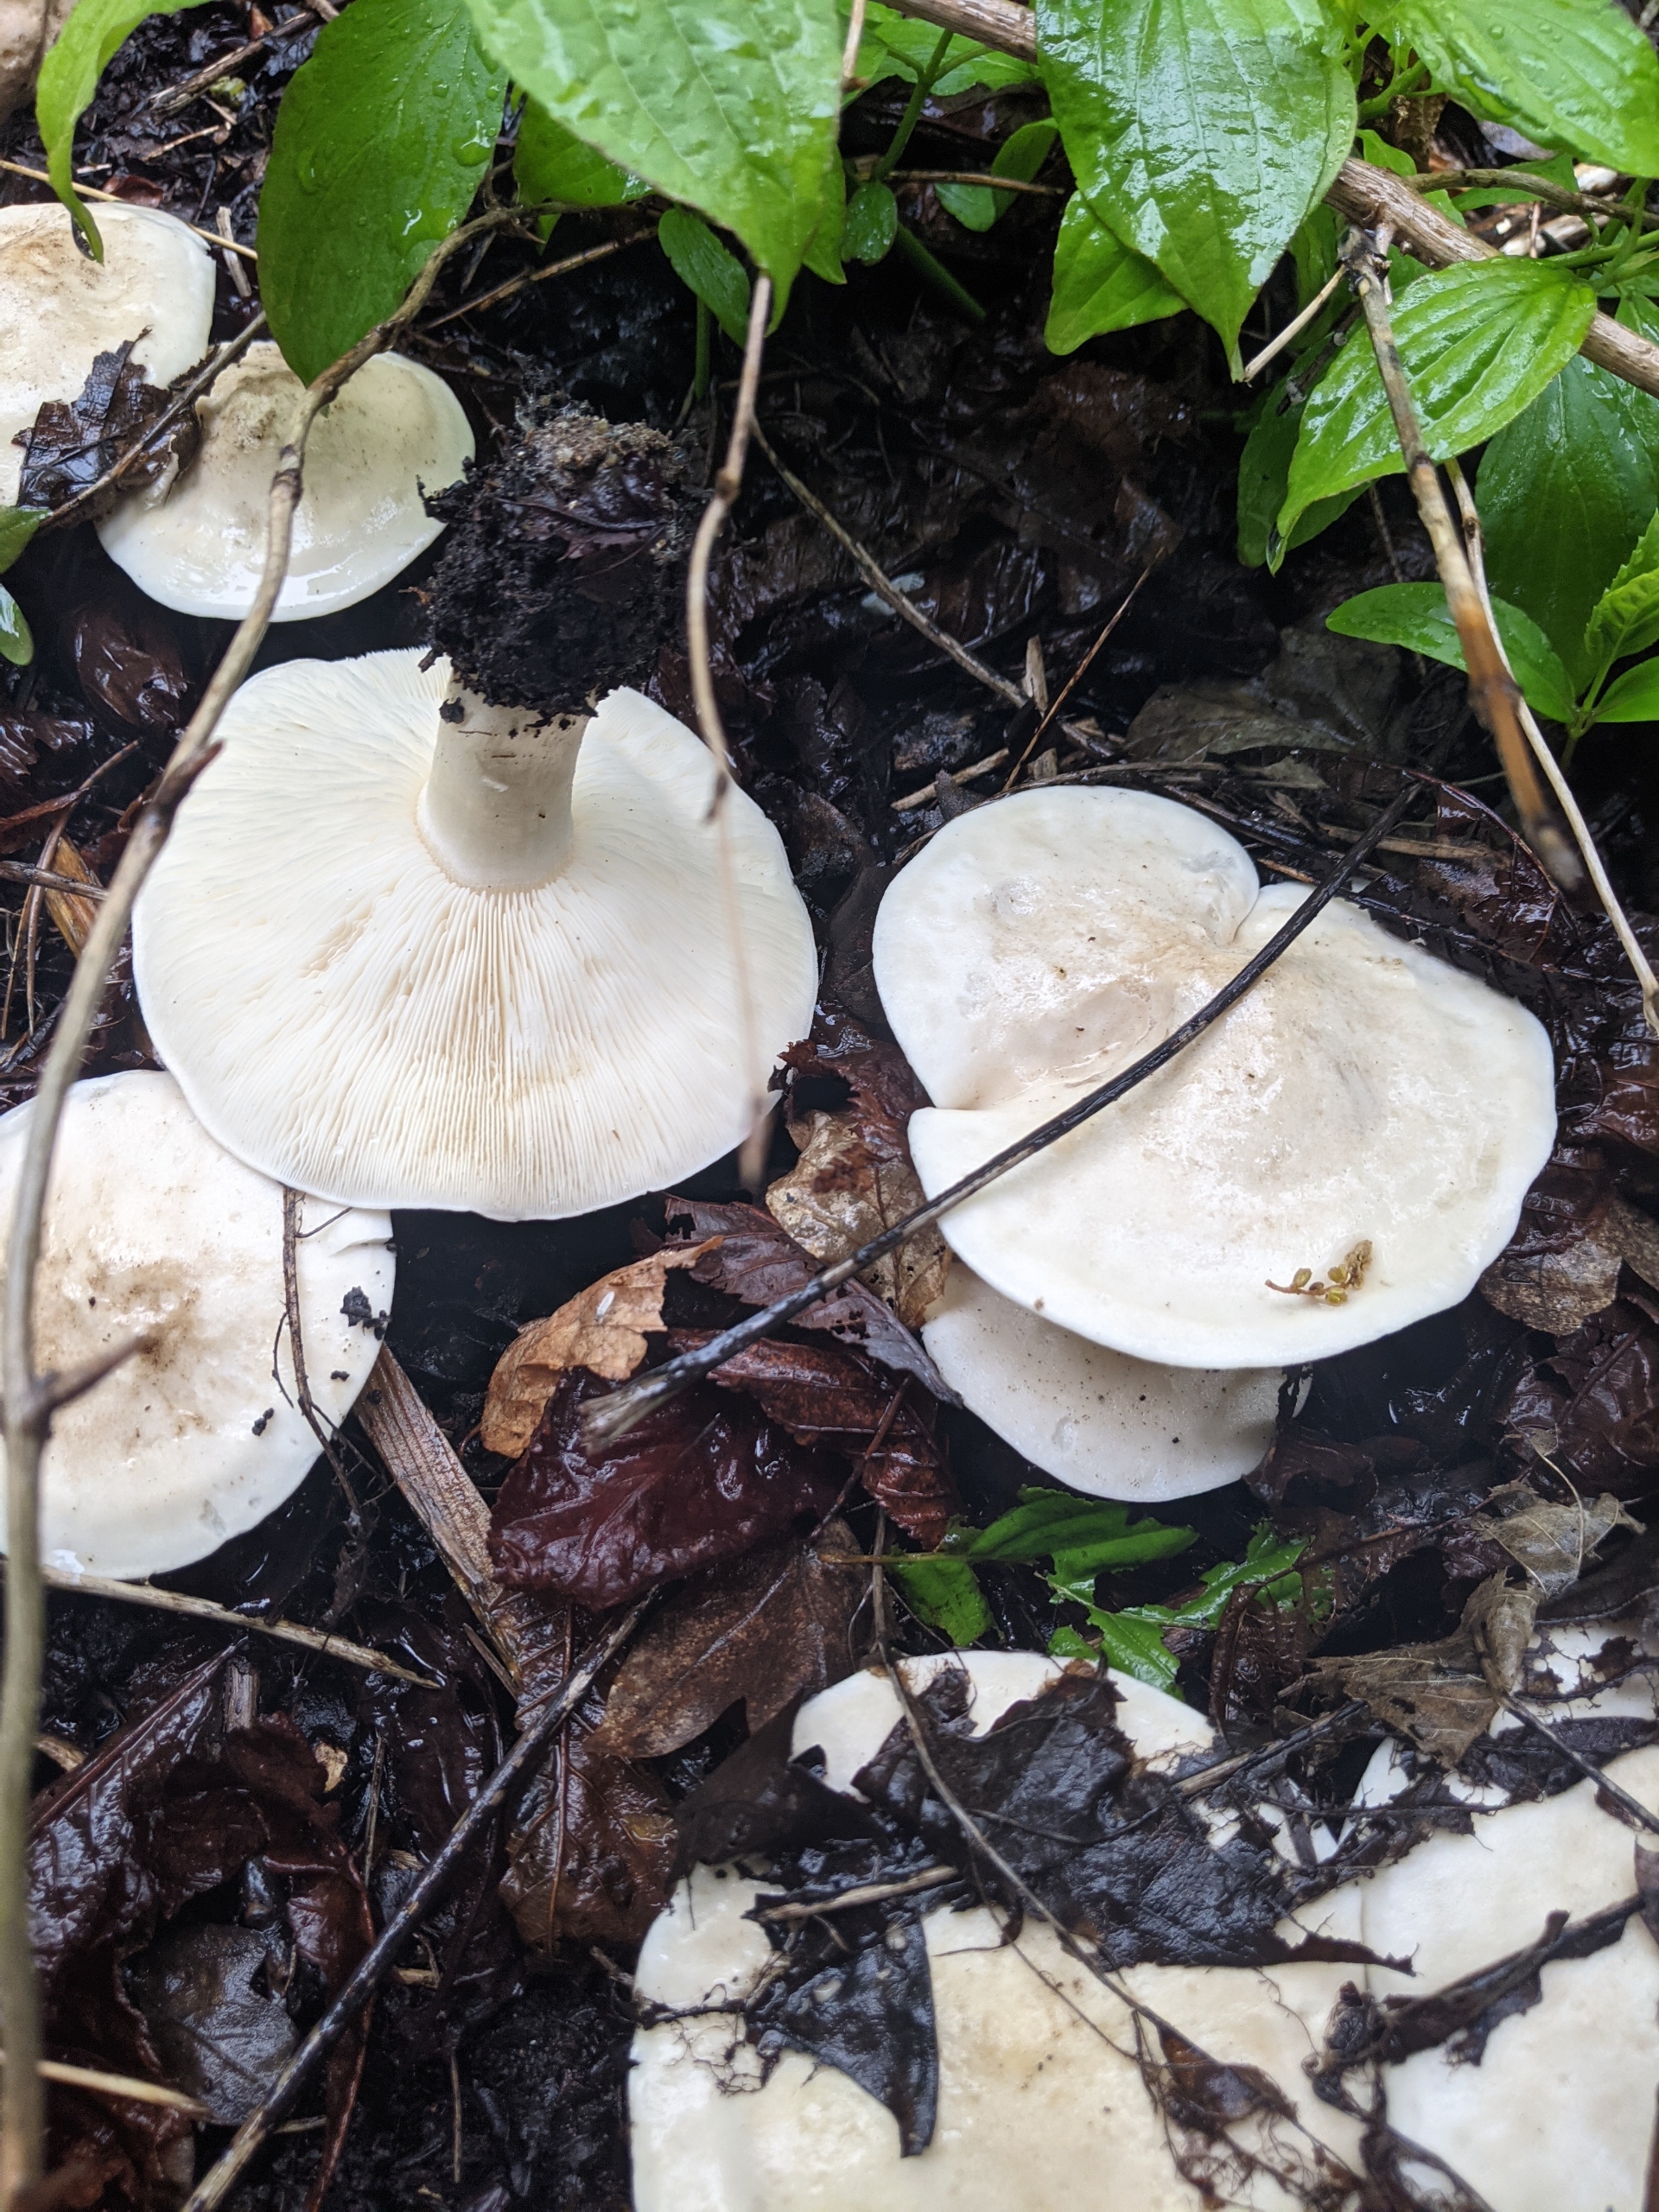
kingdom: Fungi
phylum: Basidiomycota
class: Agaricomycetes
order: Agaricales
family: Lyophyllaceae
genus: Calocybe
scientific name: Calocybe gambosa
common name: Vårmusseron
